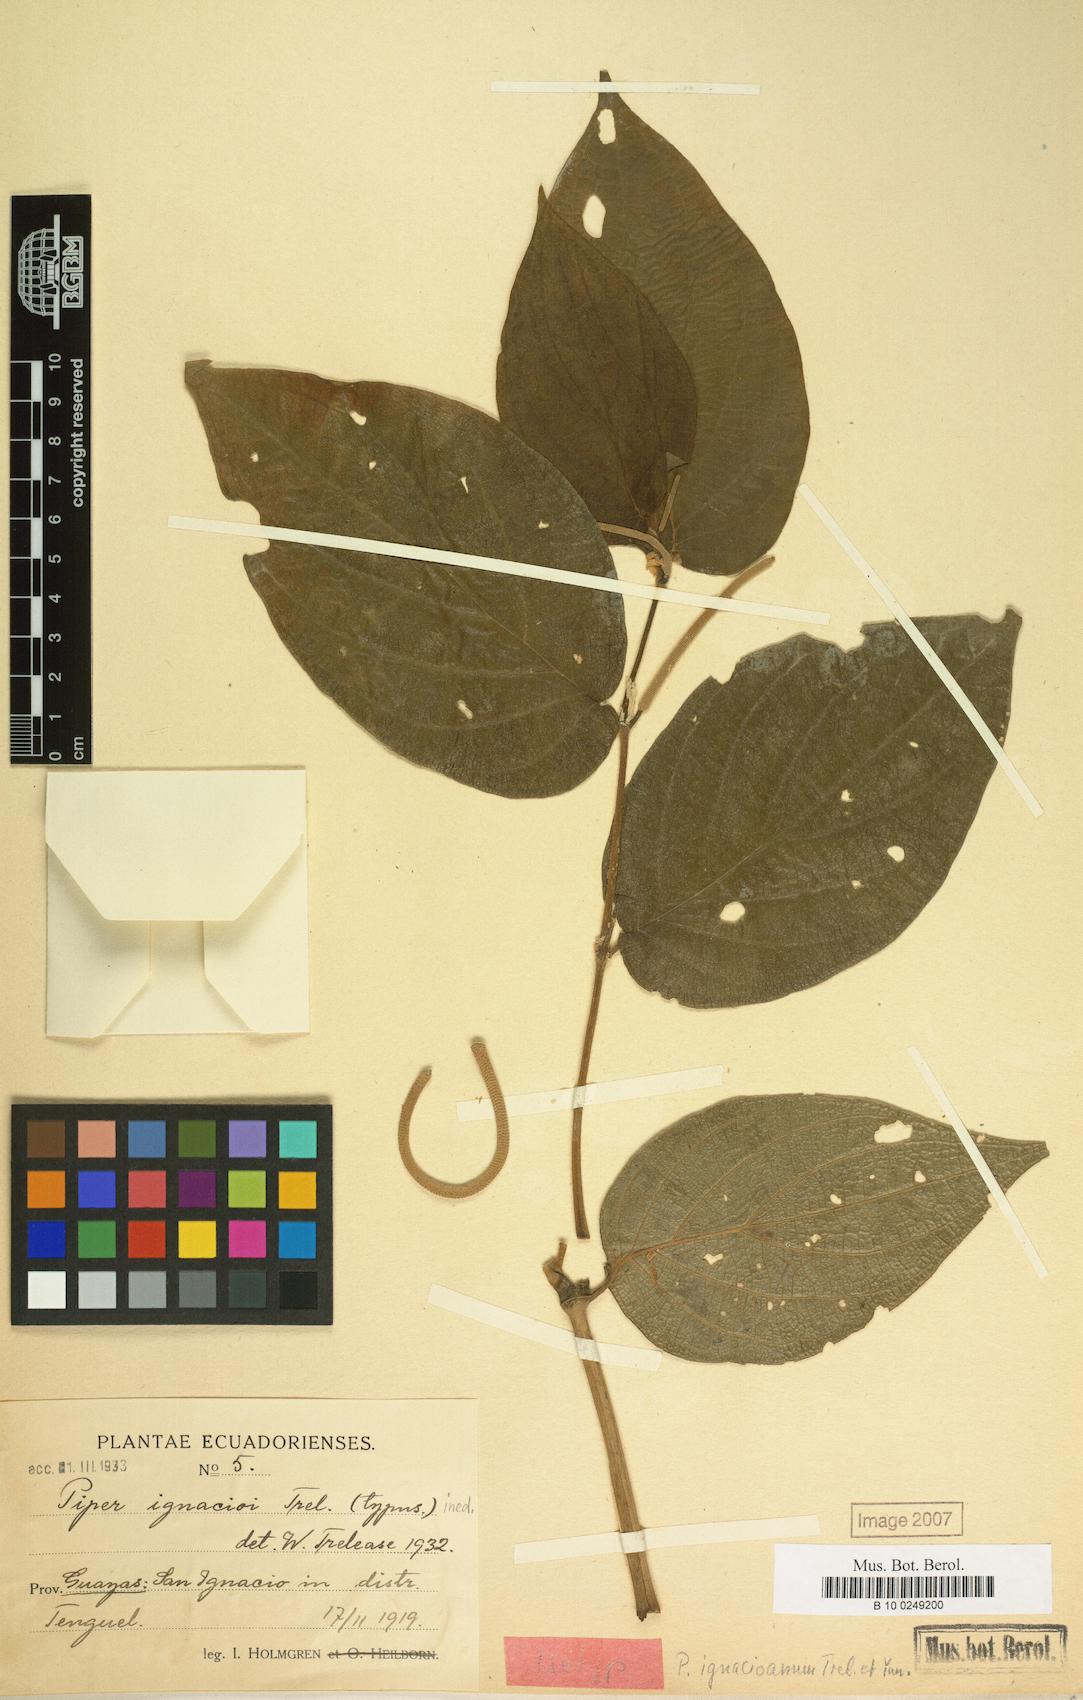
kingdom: Plantae
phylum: Tracheophyta
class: Magnoliopsida
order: Piperales
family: Piperaceae
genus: Piper
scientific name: Piper dilatatum
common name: Higuillo
